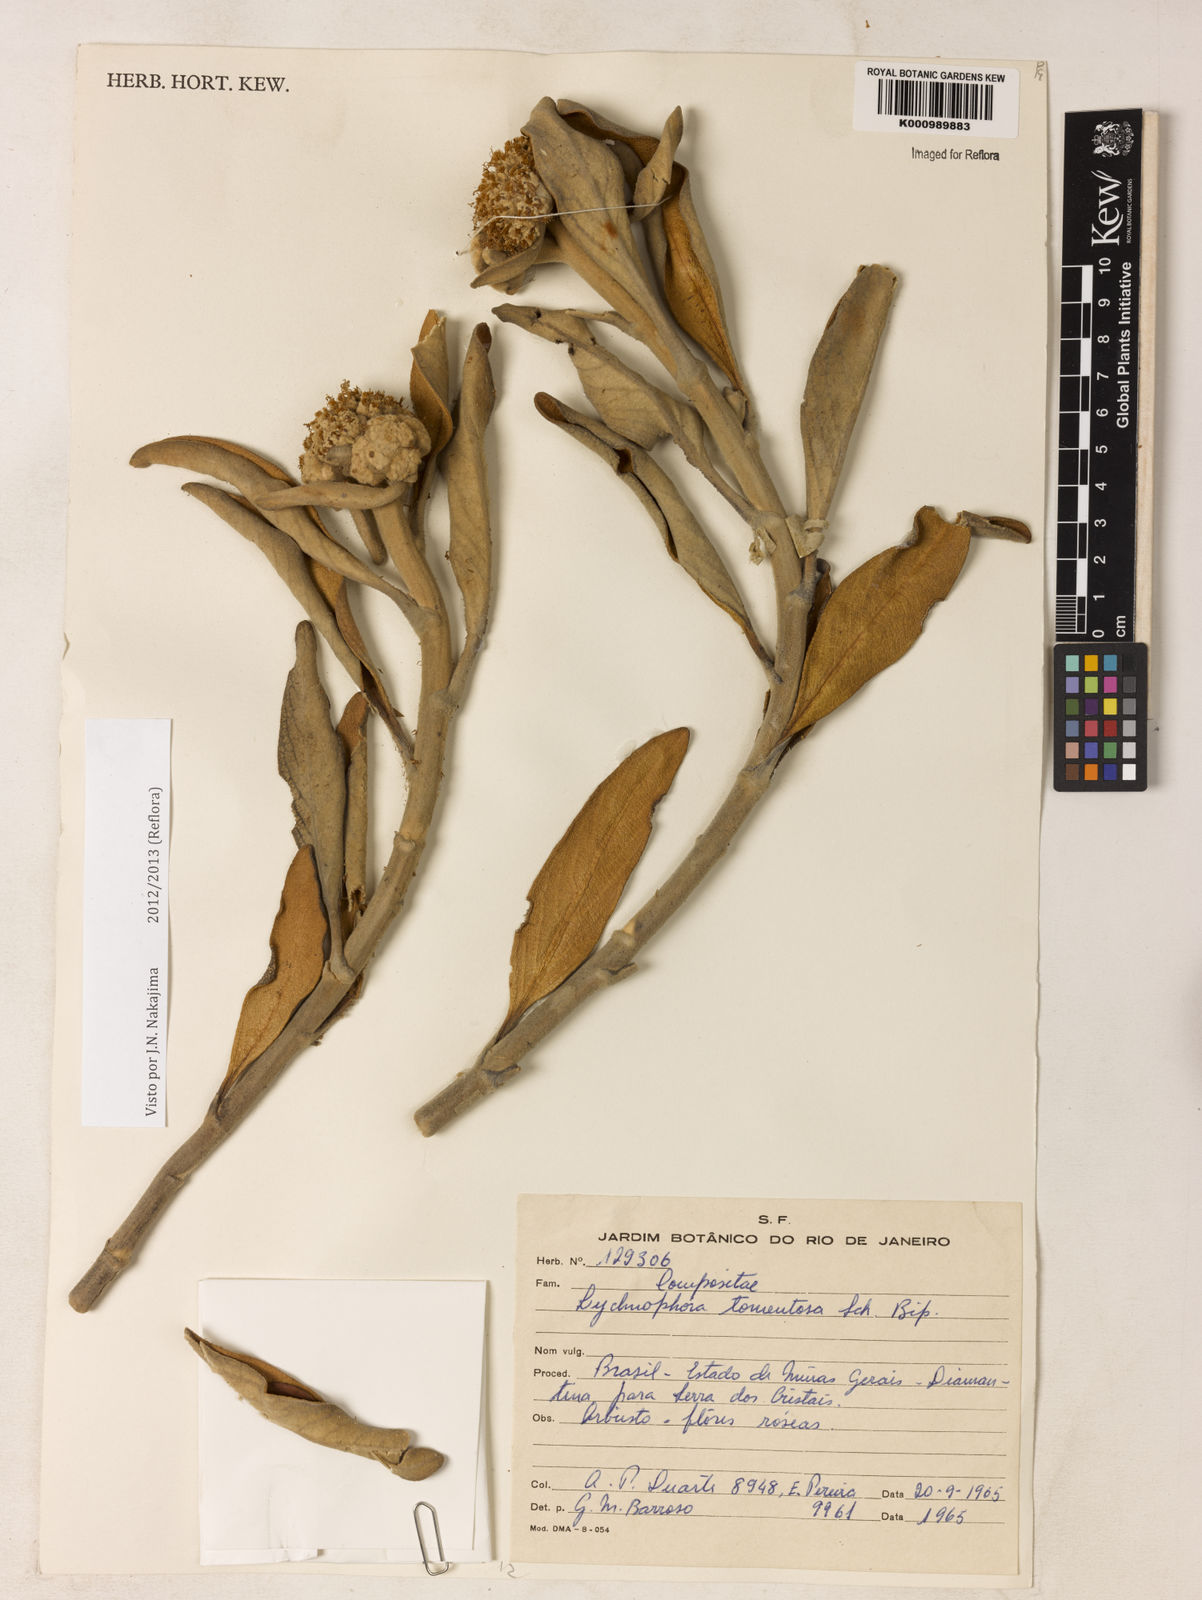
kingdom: Plantae
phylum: Tracheophyta
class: Magnoliopsida
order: Asterales
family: Asteraceae
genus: Lychnocephalus
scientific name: Lychnocephalus tomentosus
